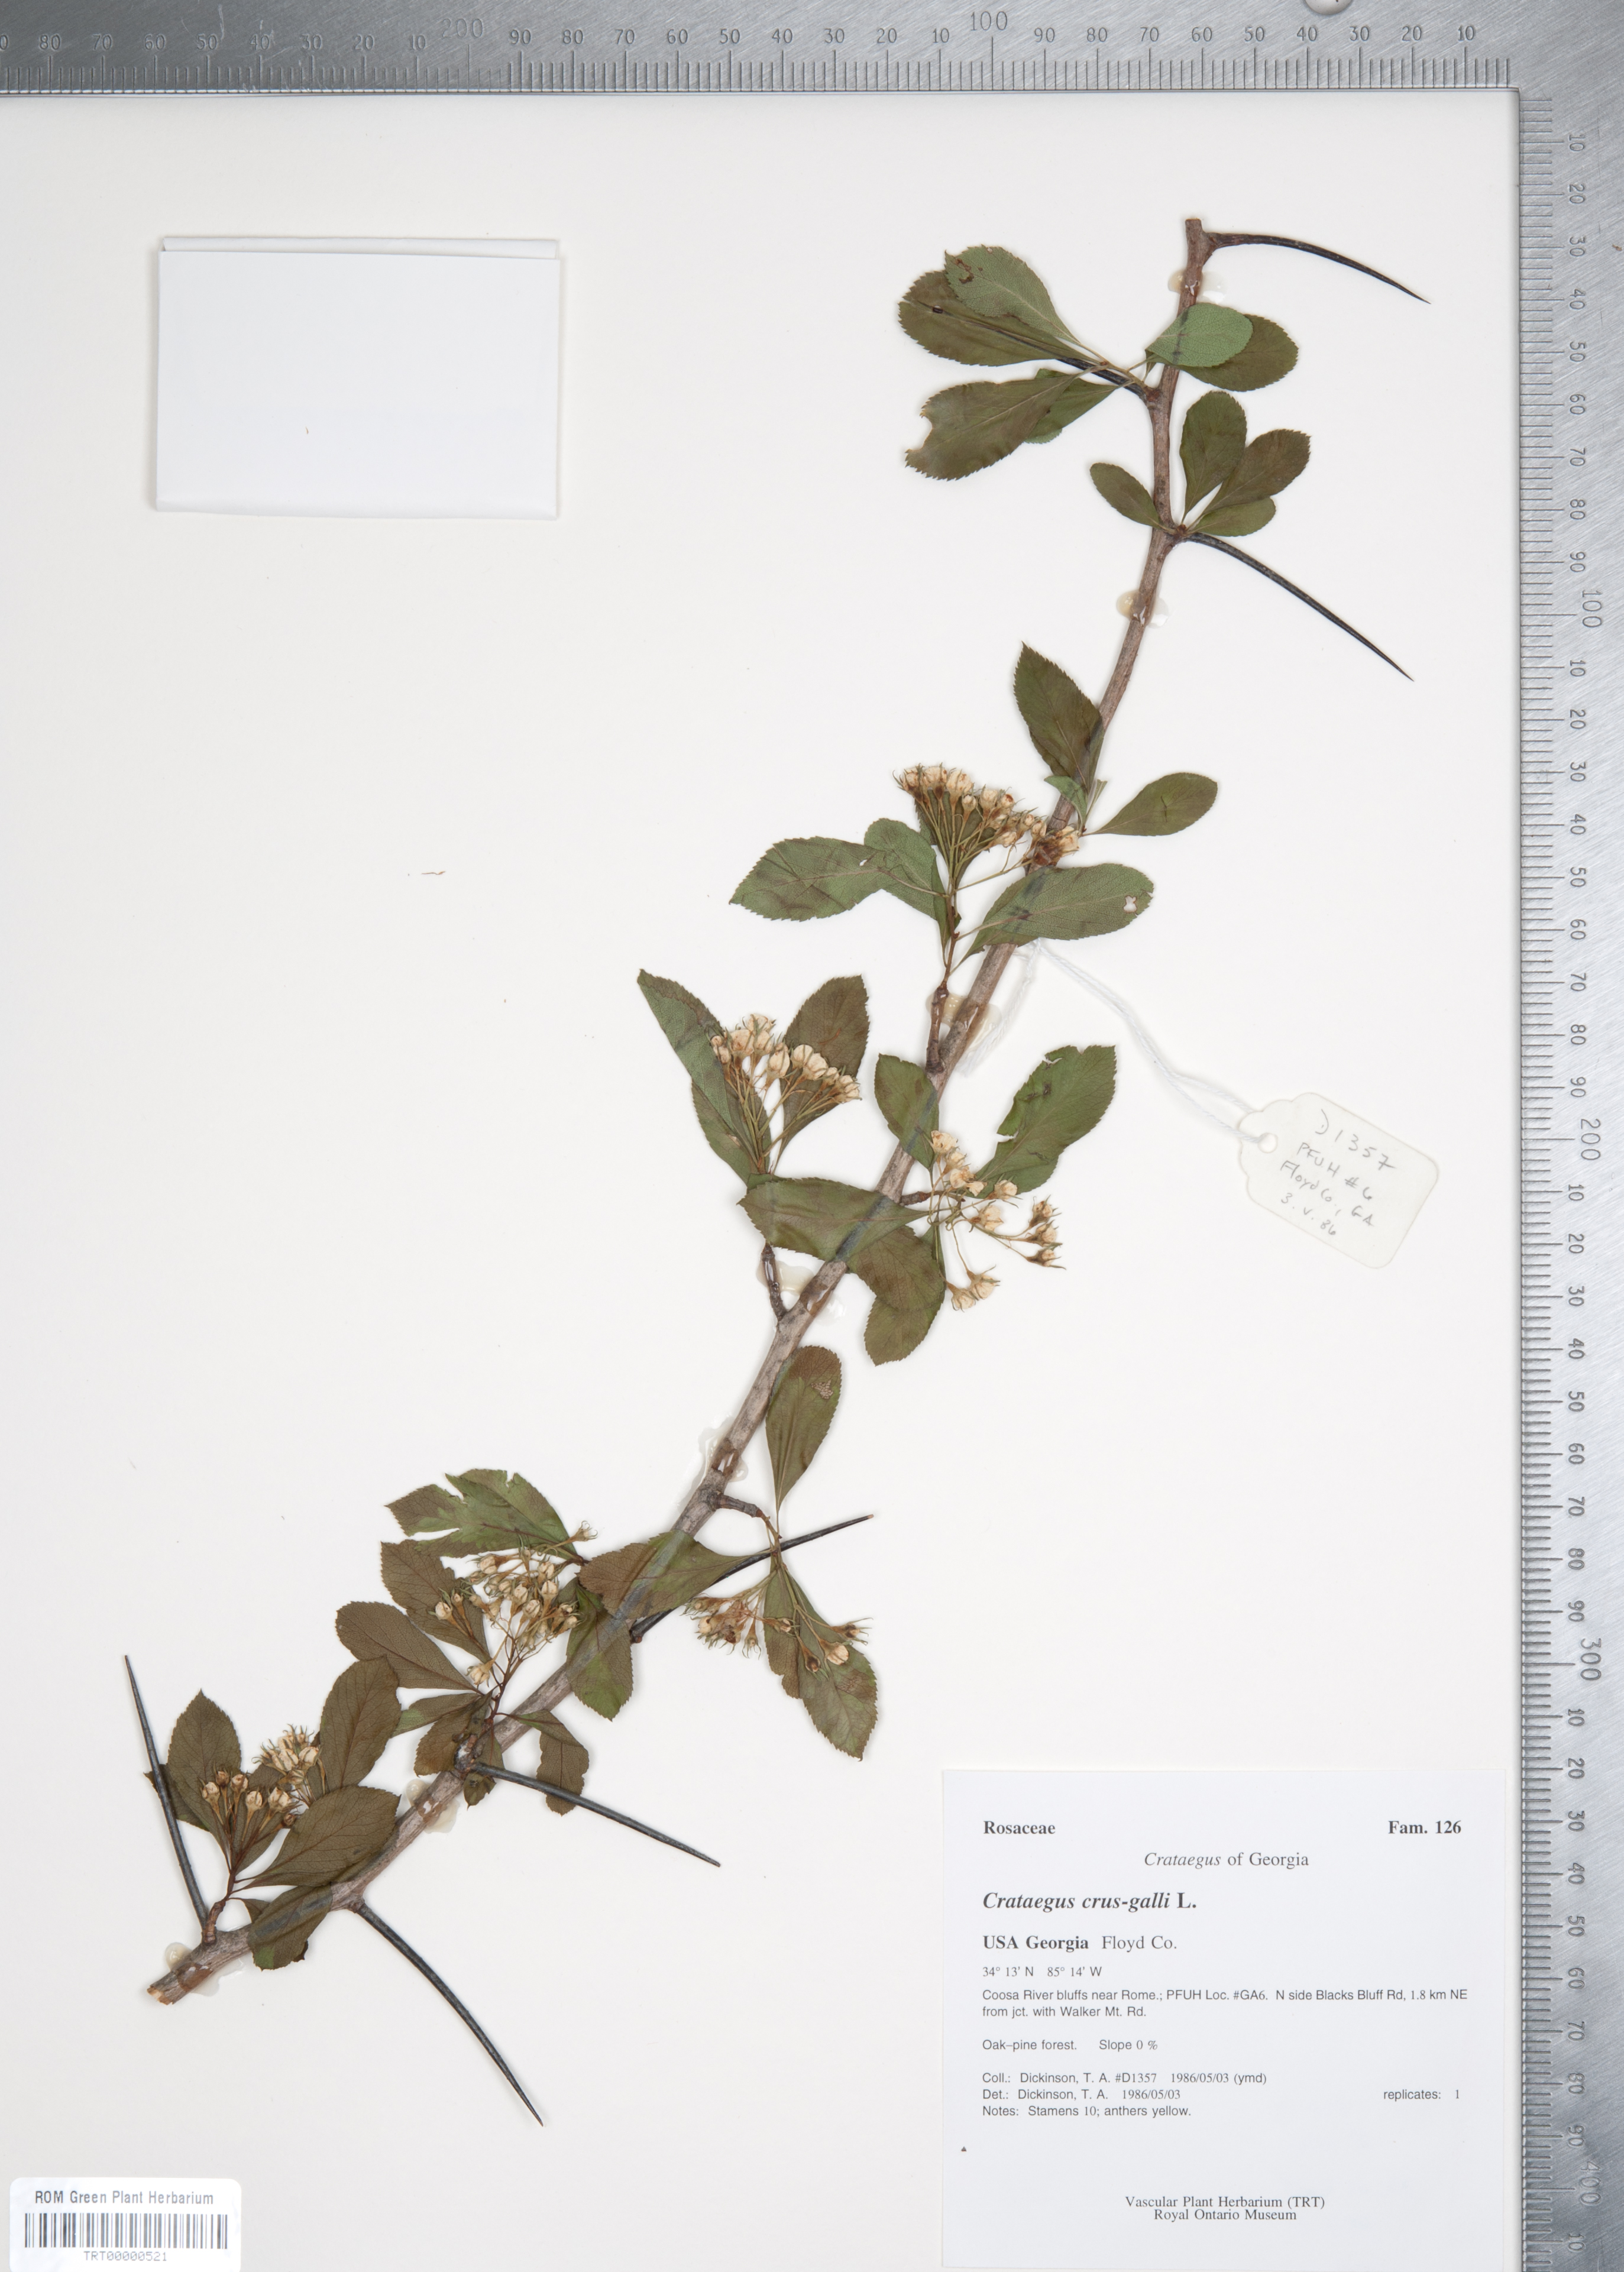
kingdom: Plantae
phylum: Tracheophyta
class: Magnoliopsida
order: Rosales
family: Rosaceae
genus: Crataegus
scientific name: Crataegus crus-galli
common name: Cockspurthorn
